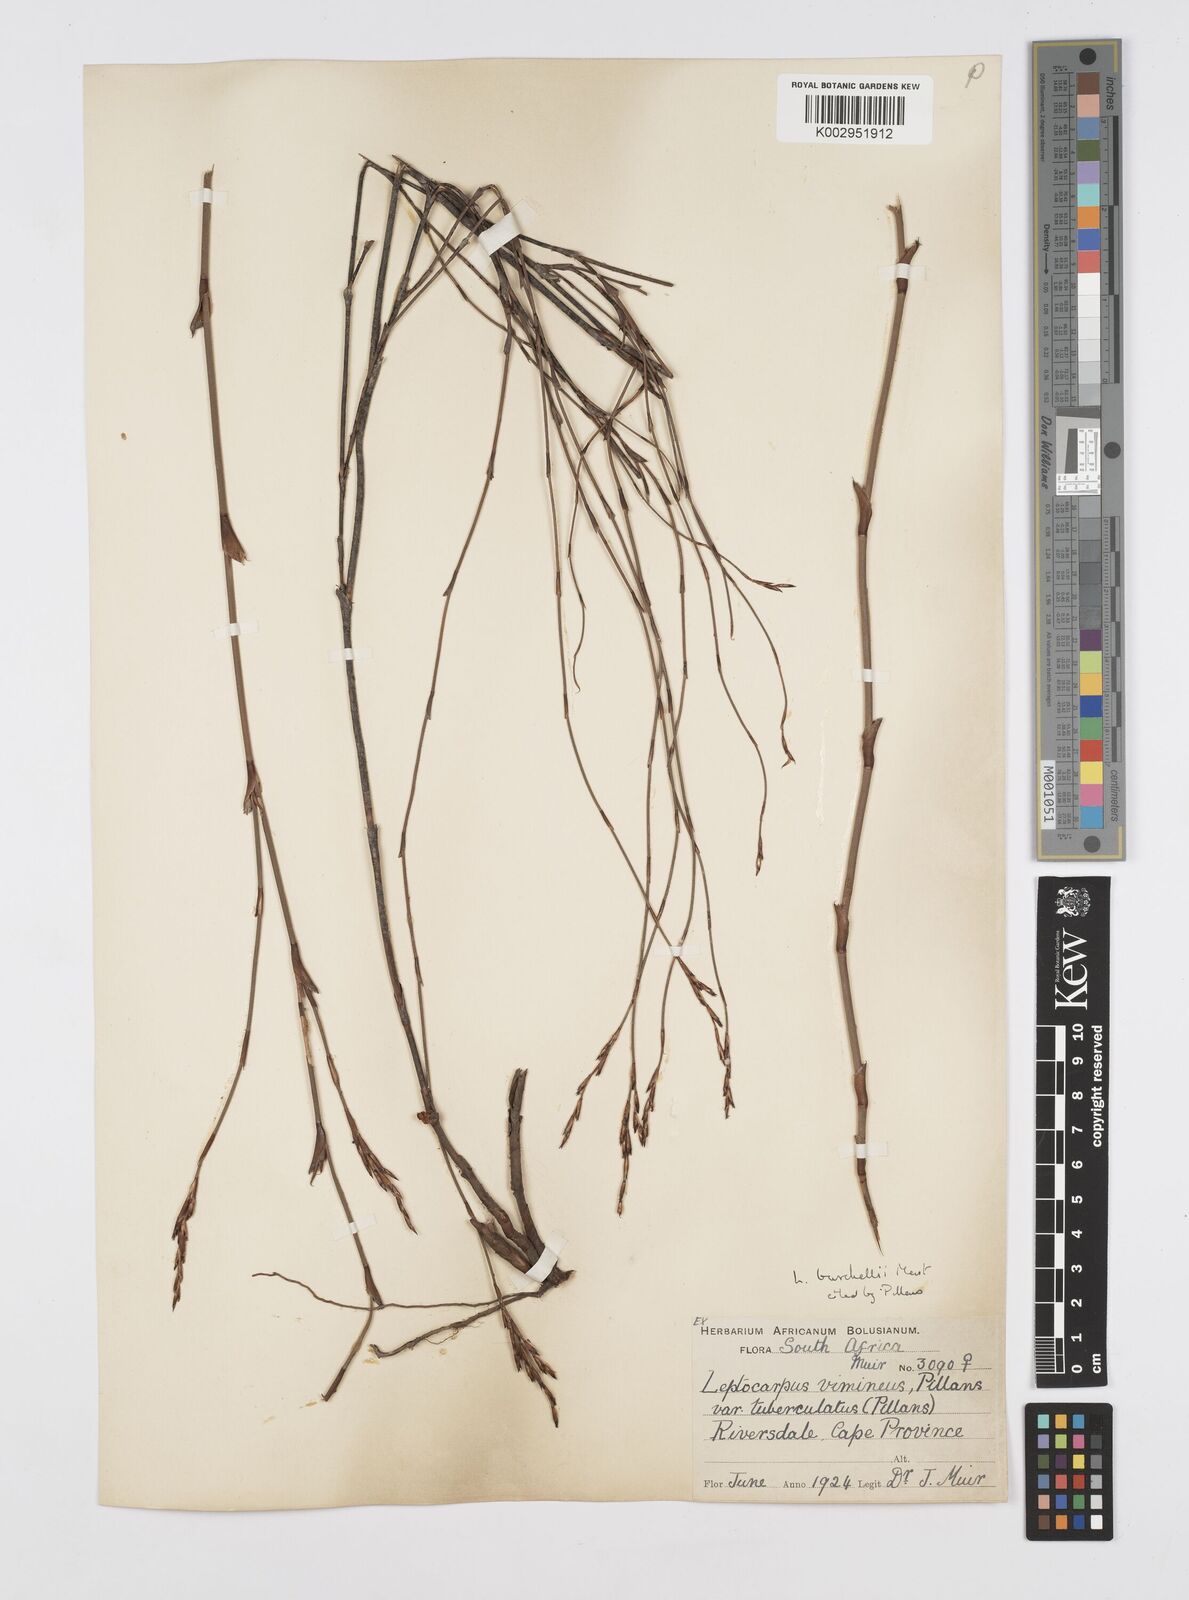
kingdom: Plantae
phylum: Tracheophyta
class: Liliopsida
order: Poales
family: Restionaceae
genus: Restio
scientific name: Restio burchellii
